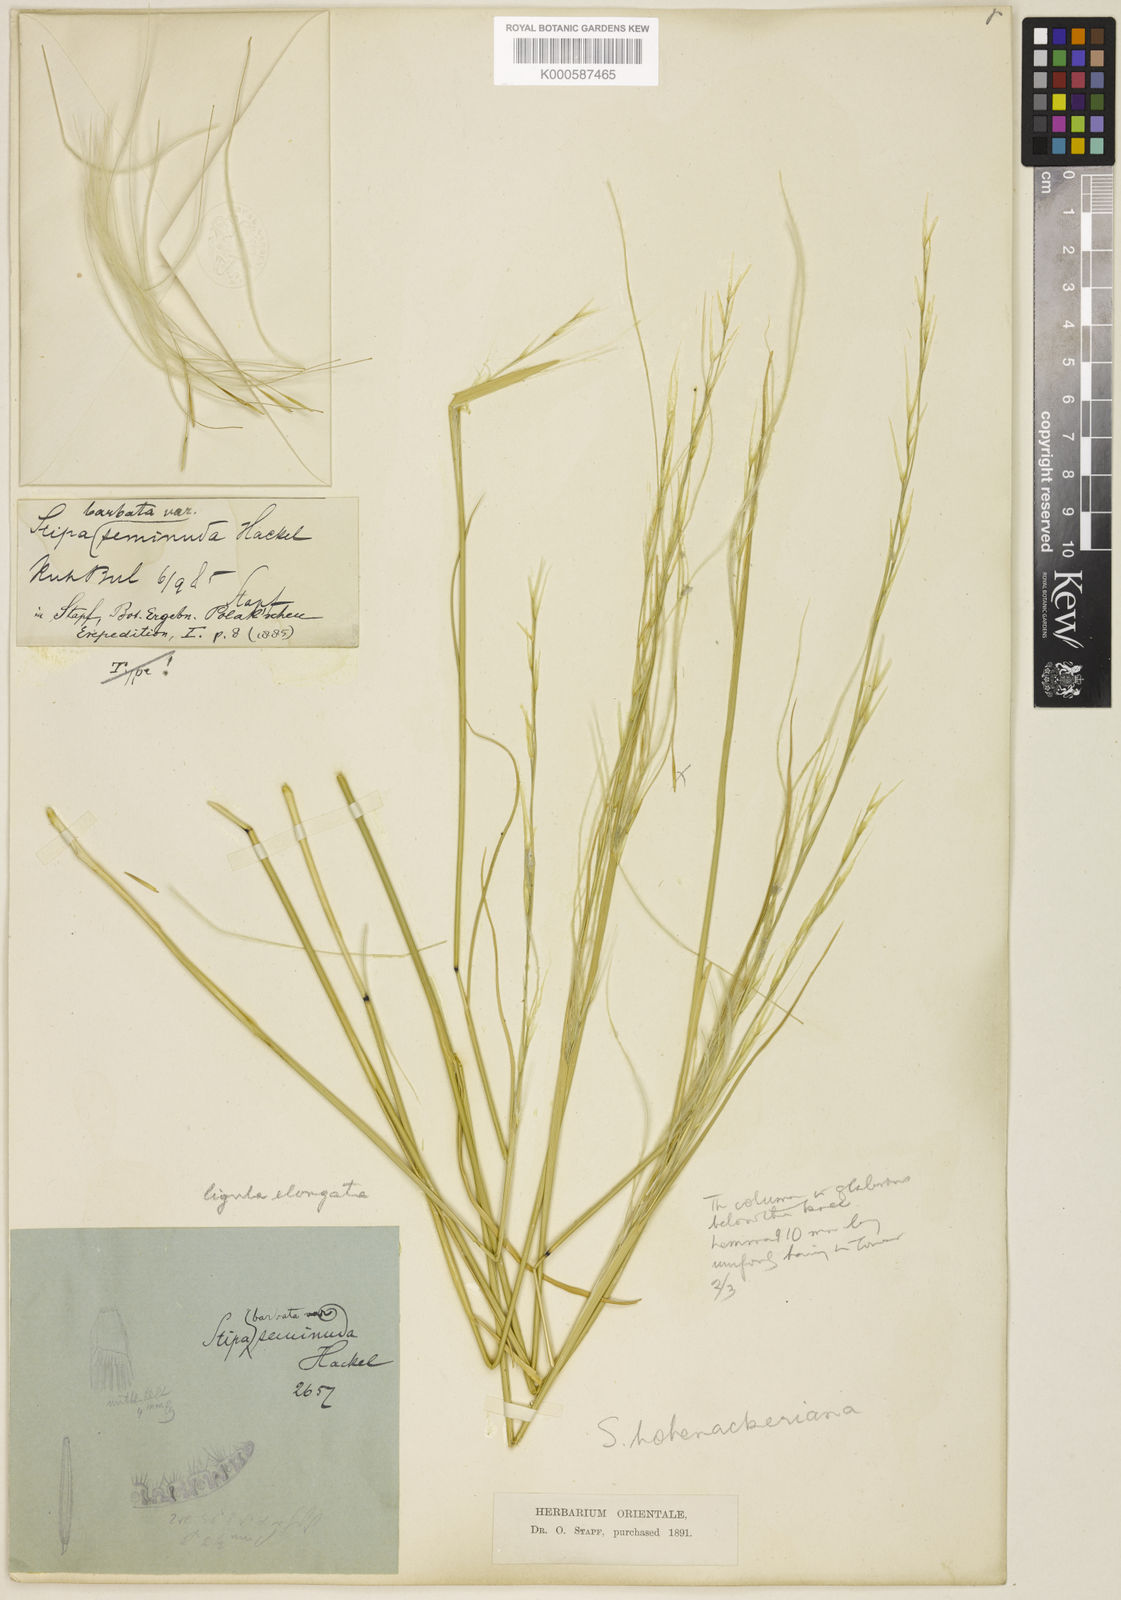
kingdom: Plantae
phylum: Tracheophyta
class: Liliopsida
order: Poales
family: Poaceae
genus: Stipa
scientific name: Stipa barbata
